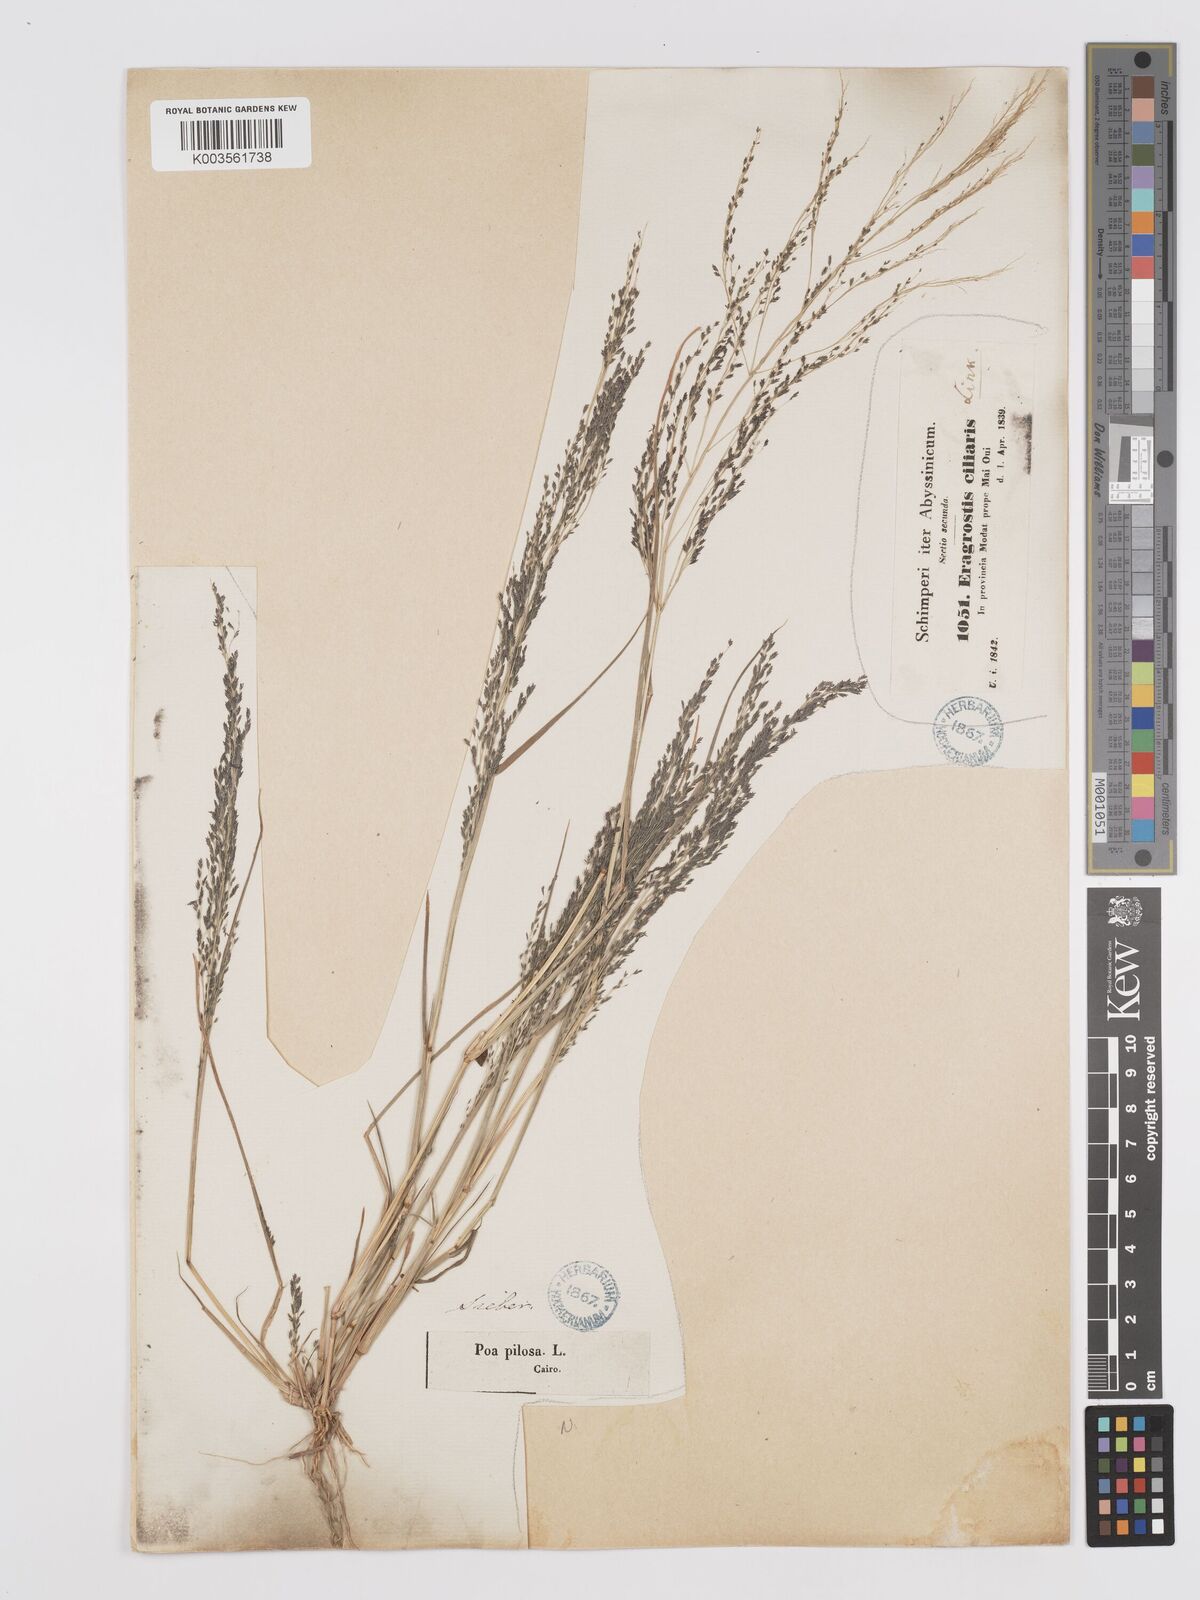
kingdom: Plantae
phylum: Tracheophyta
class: Liliopsida
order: Poales
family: Poaceae
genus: Eragrostis
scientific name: Eragrostis pilosa
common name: Indian lovegrass
